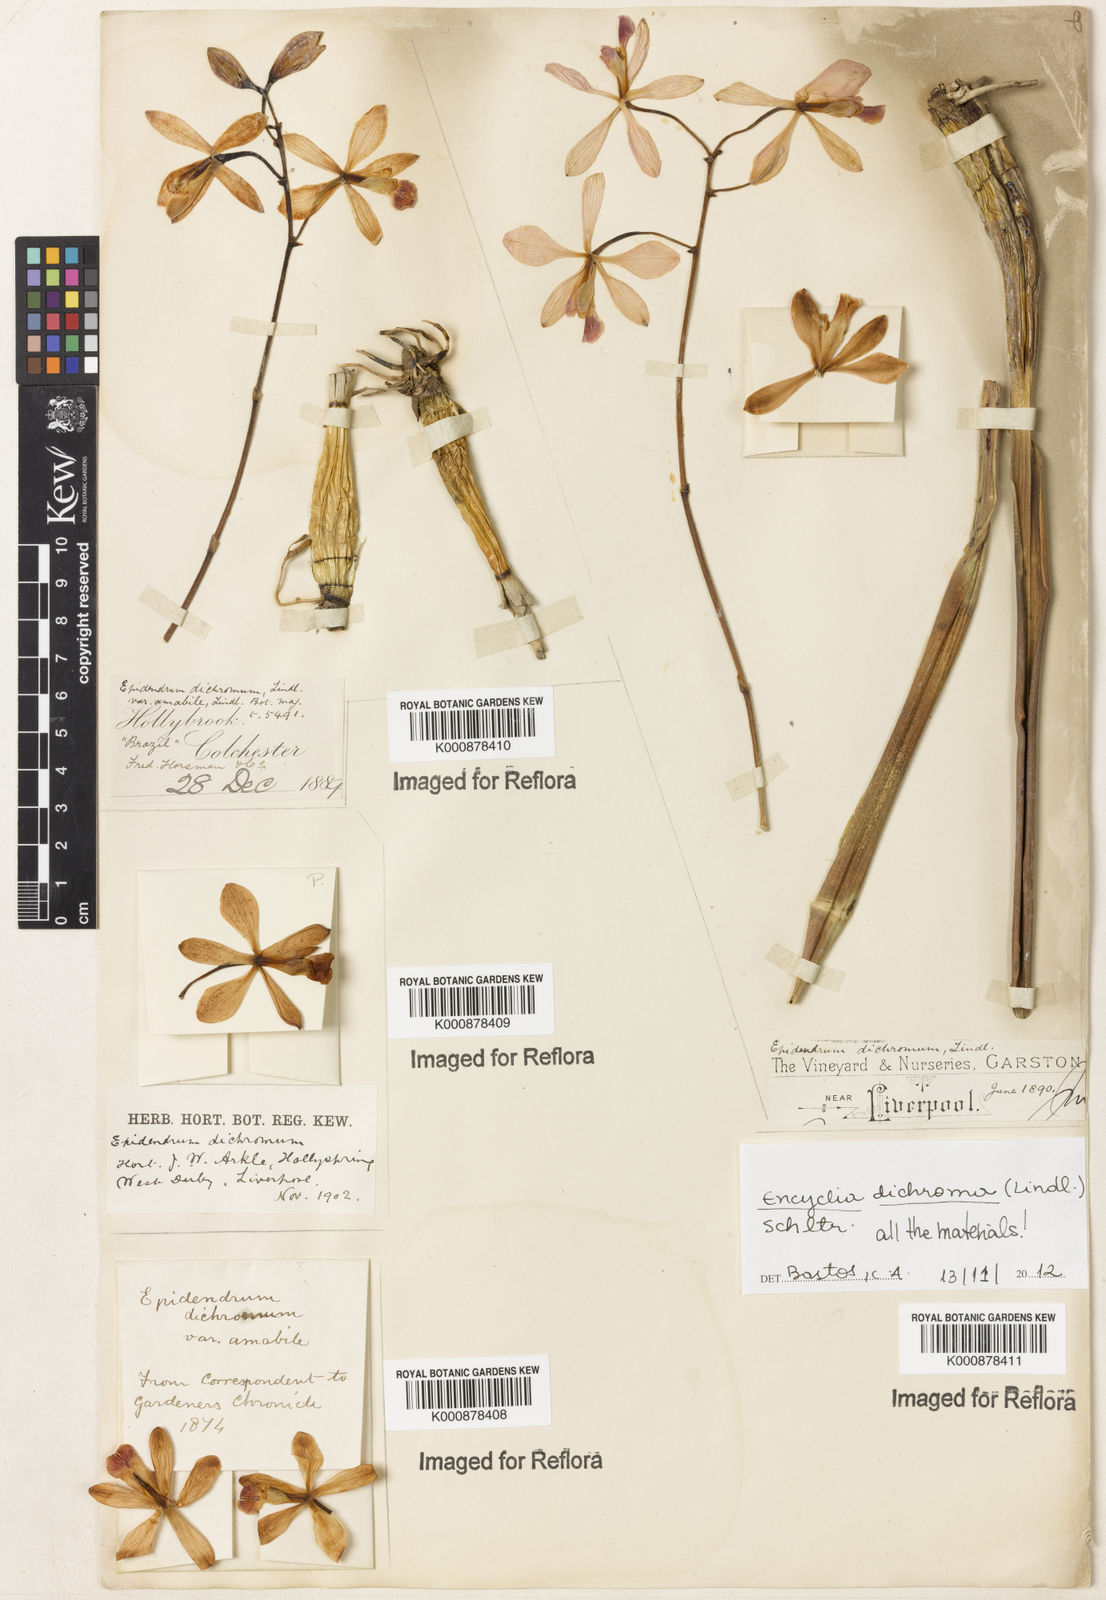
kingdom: Plantae
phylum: Tracheophyta
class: Liliopsida
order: Asparagales
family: Orchidaceae
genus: Encyclia
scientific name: Encyclia cordigera
